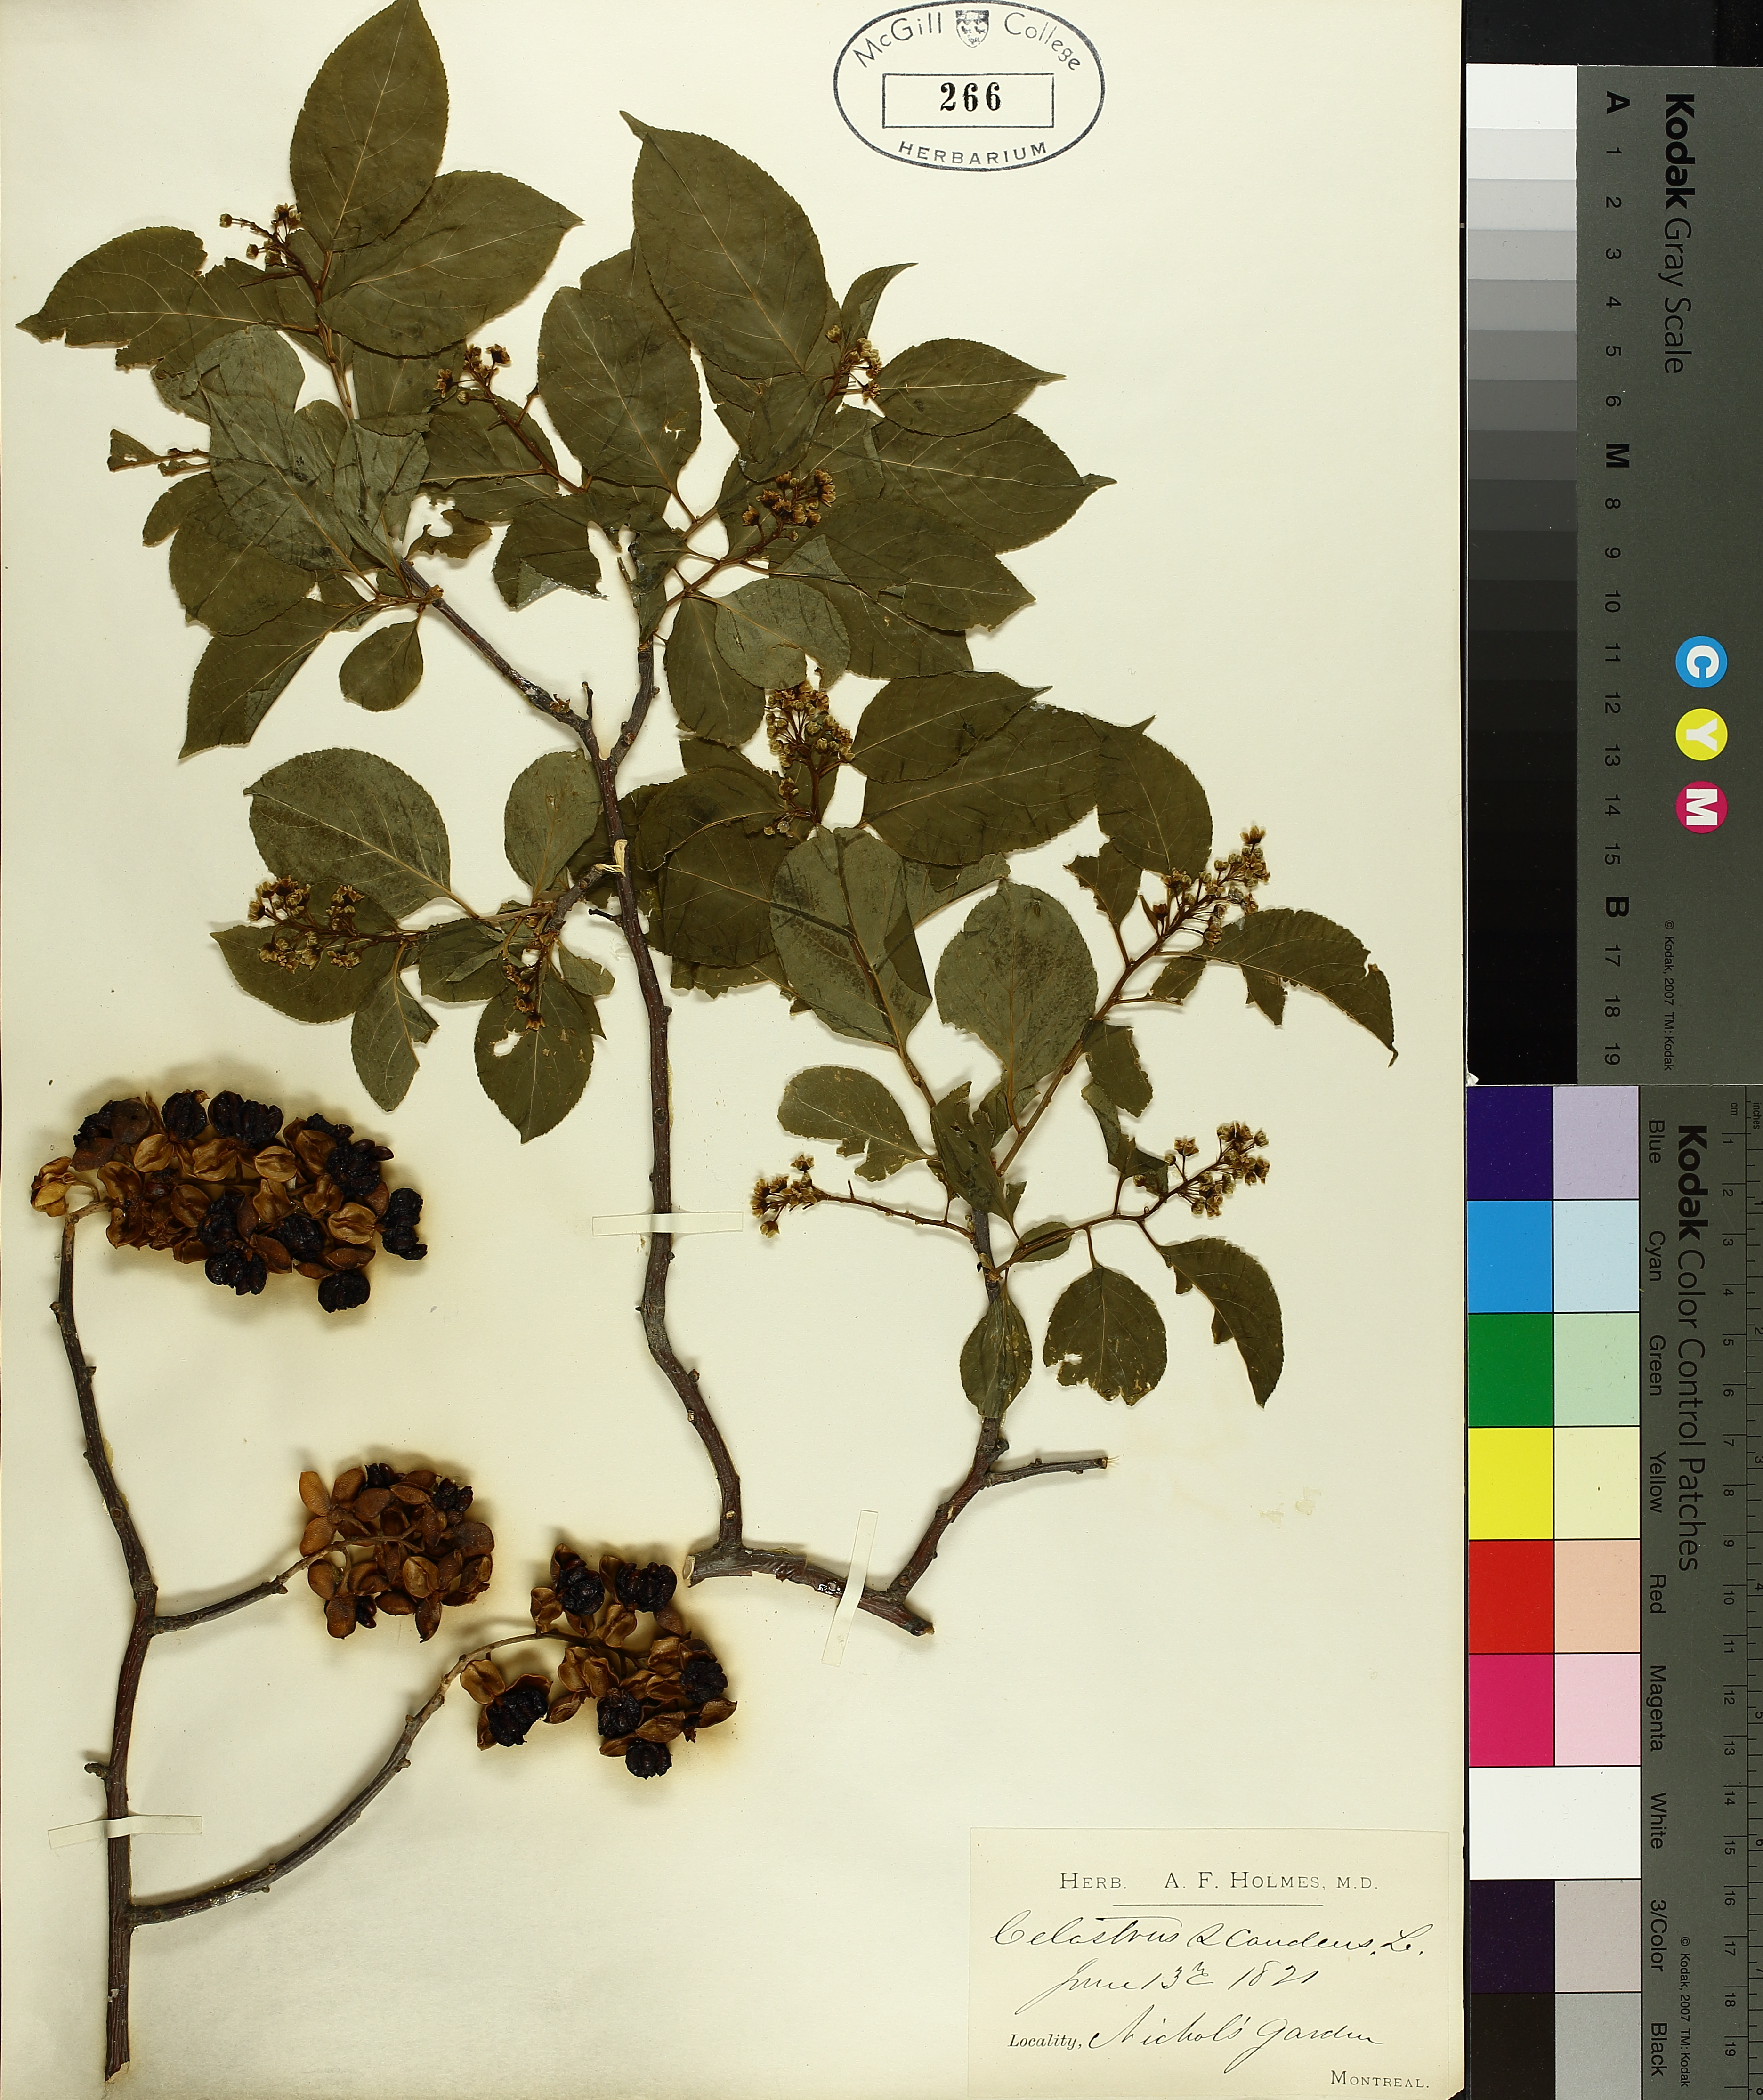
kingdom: Plantae
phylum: Tracheophyta
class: Magnoliopsida
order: Celastrales
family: Celastraceae
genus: Celastrus
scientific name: Celastrus scandens
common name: American bittersweet
